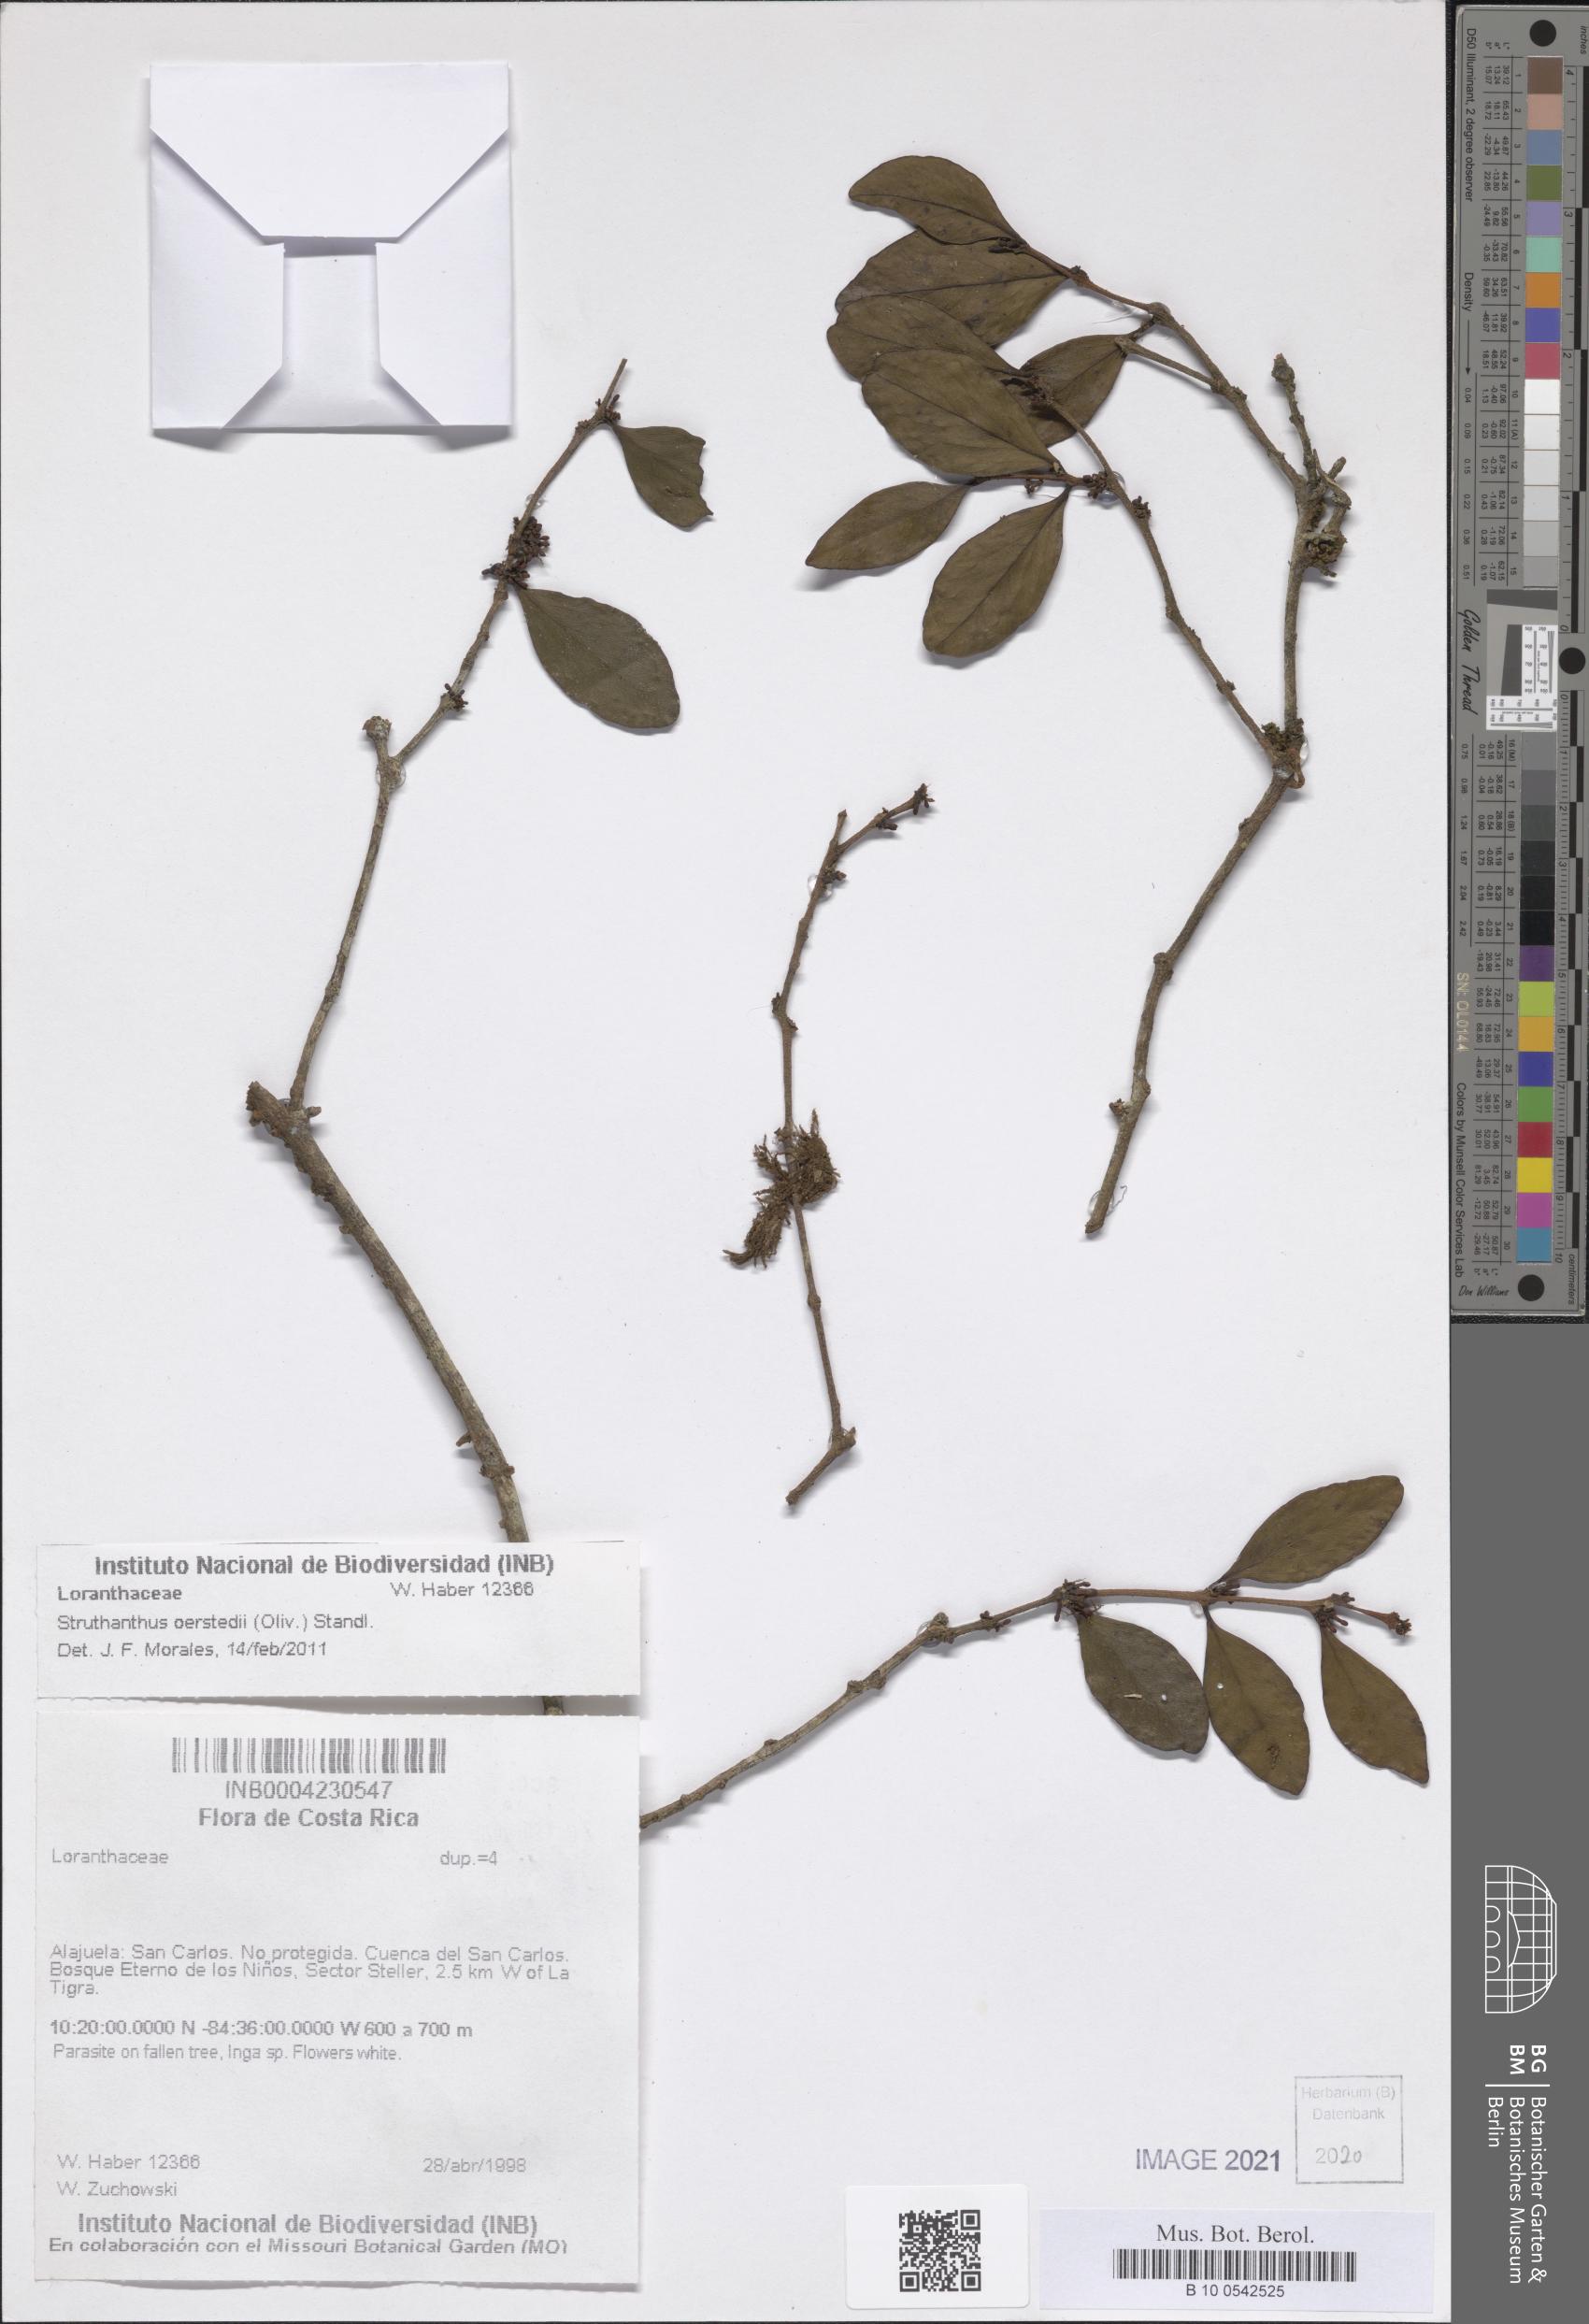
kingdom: Plantae
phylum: Tracheophyta
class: Magnoliopsida
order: Santalales
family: Loranthaceae
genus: Struthanthus
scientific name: Struthanthus oerstedii
